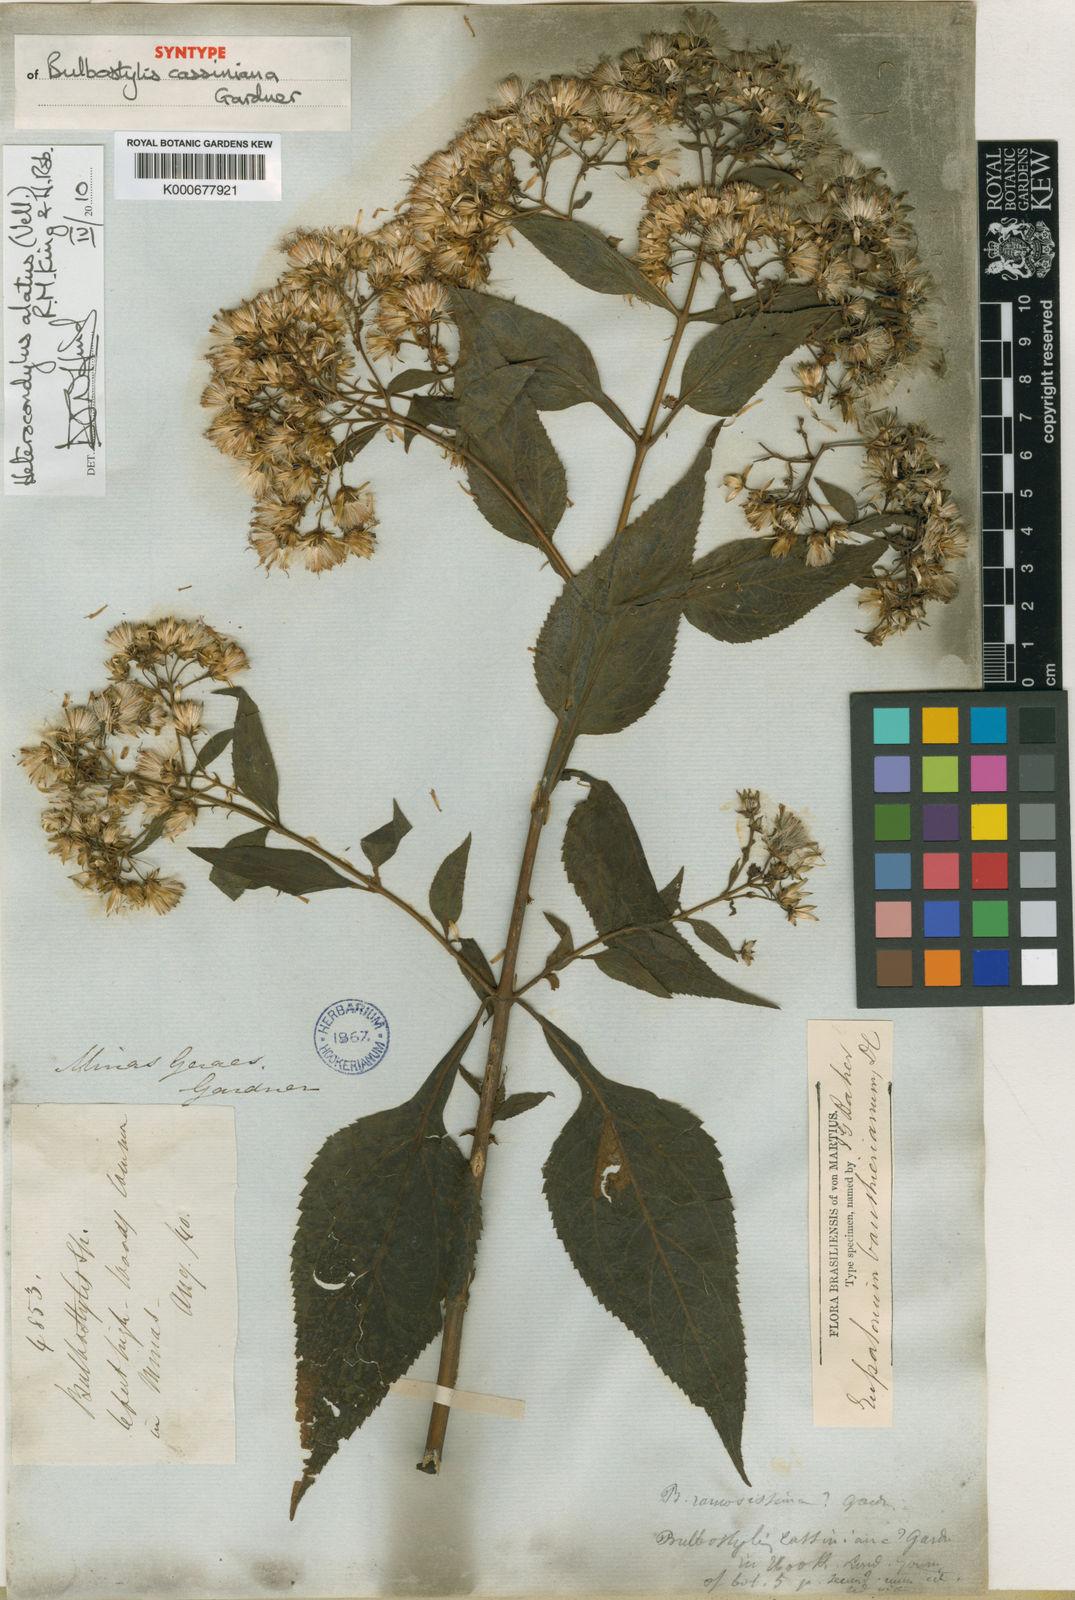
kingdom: Plantae
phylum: Tracheophyta
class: Magnoliopsida
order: Asterales
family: Asteraceae
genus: Heterocondylus
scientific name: Heterocondylus alatus
